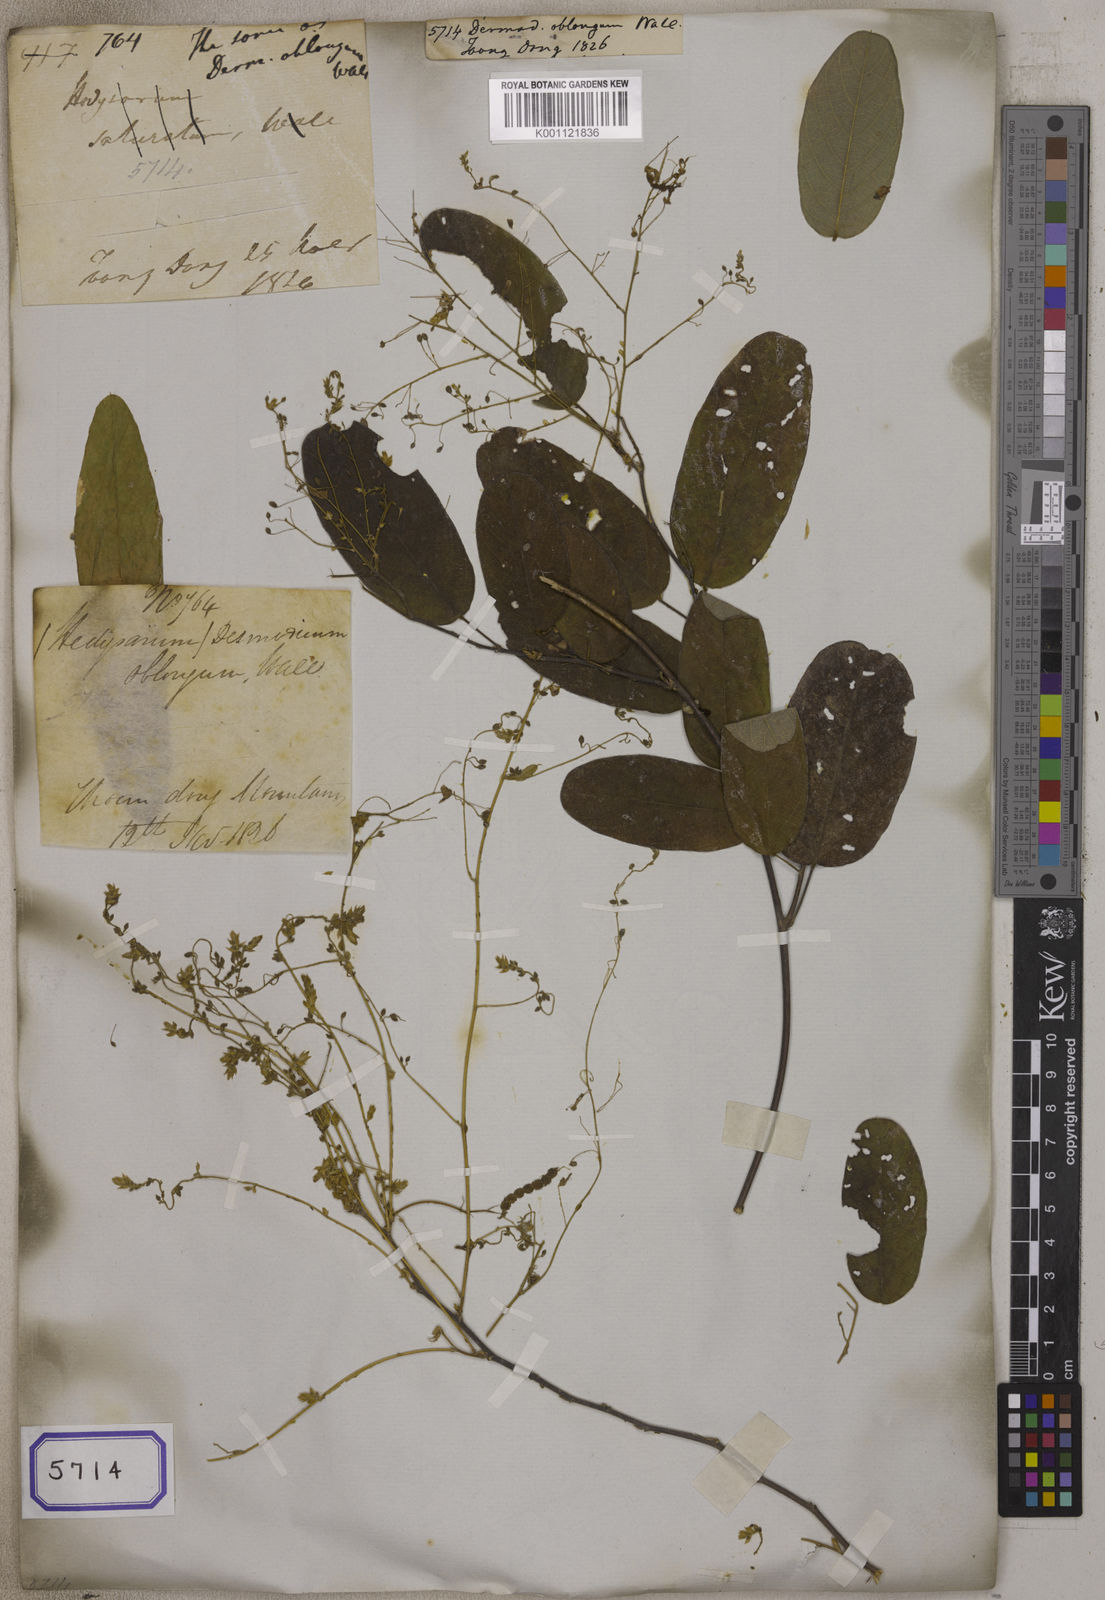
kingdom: Plantae
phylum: Tracheophyta
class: Magnoliopsida
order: Fabales
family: Fabaceae
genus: Desmodium
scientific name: Desmodium
